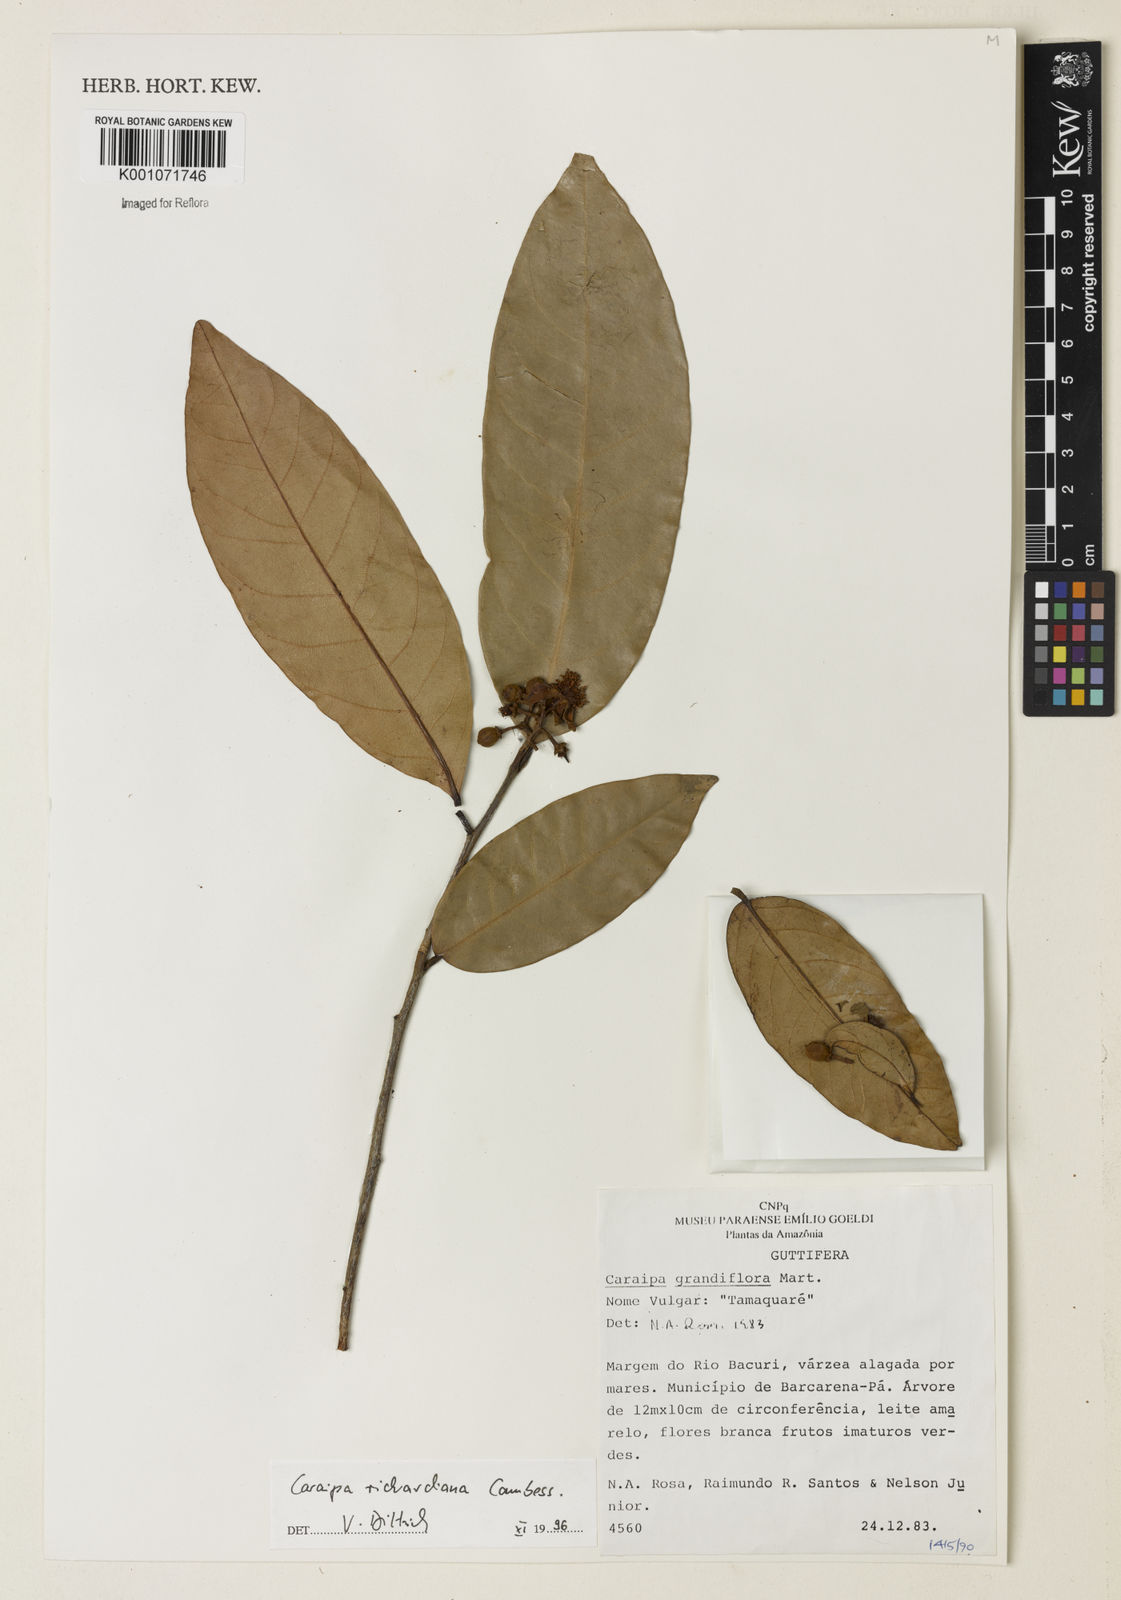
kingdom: Plantae
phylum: Tracheophyta
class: Magnoliopsida
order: Malpighiales
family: Calophyllaceae
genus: Caraipa
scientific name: Caraipa richardiana
